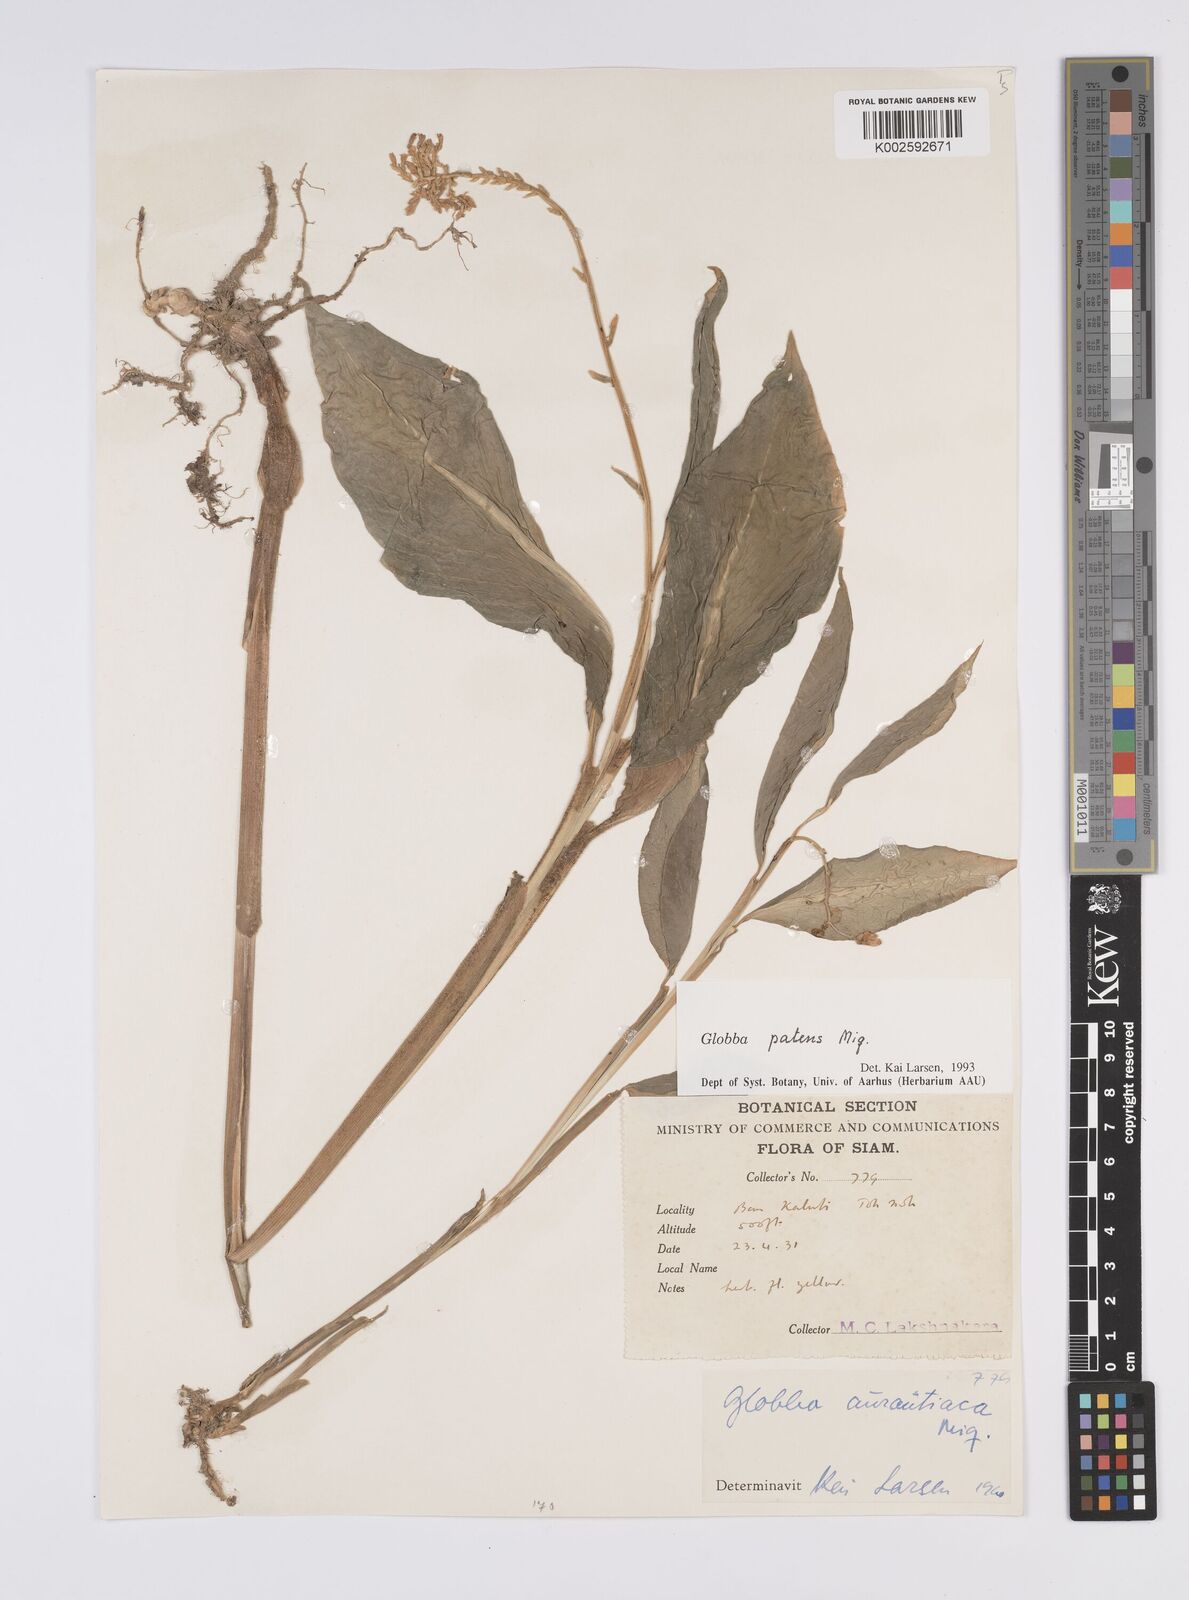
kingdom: Plantae
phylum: Tracheophyta
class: Liliopsida
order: Zingiberales
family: Zingiberaceae
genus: Globba
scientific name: Globba patens
